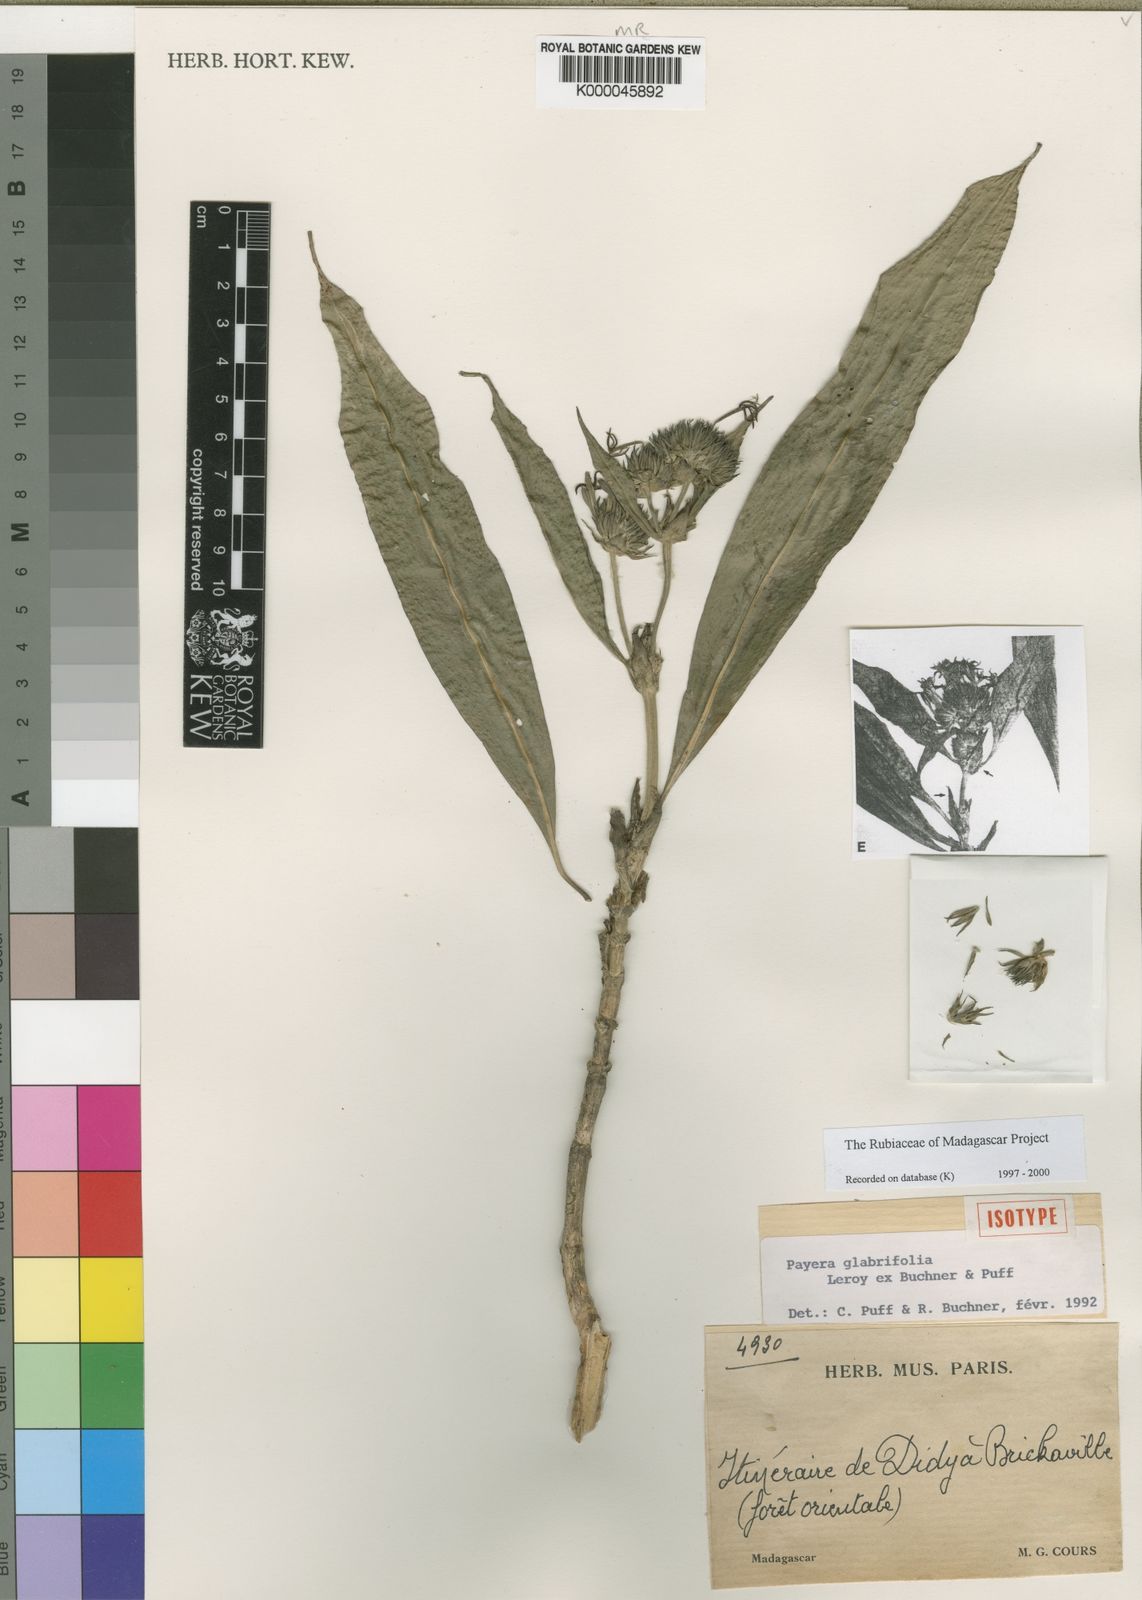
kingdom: Plantae
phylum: Tracheophyta
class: Magnoliopsida
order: Gentianales
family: Rubiaceae
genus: Payera
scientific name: Payera glabrifolia
